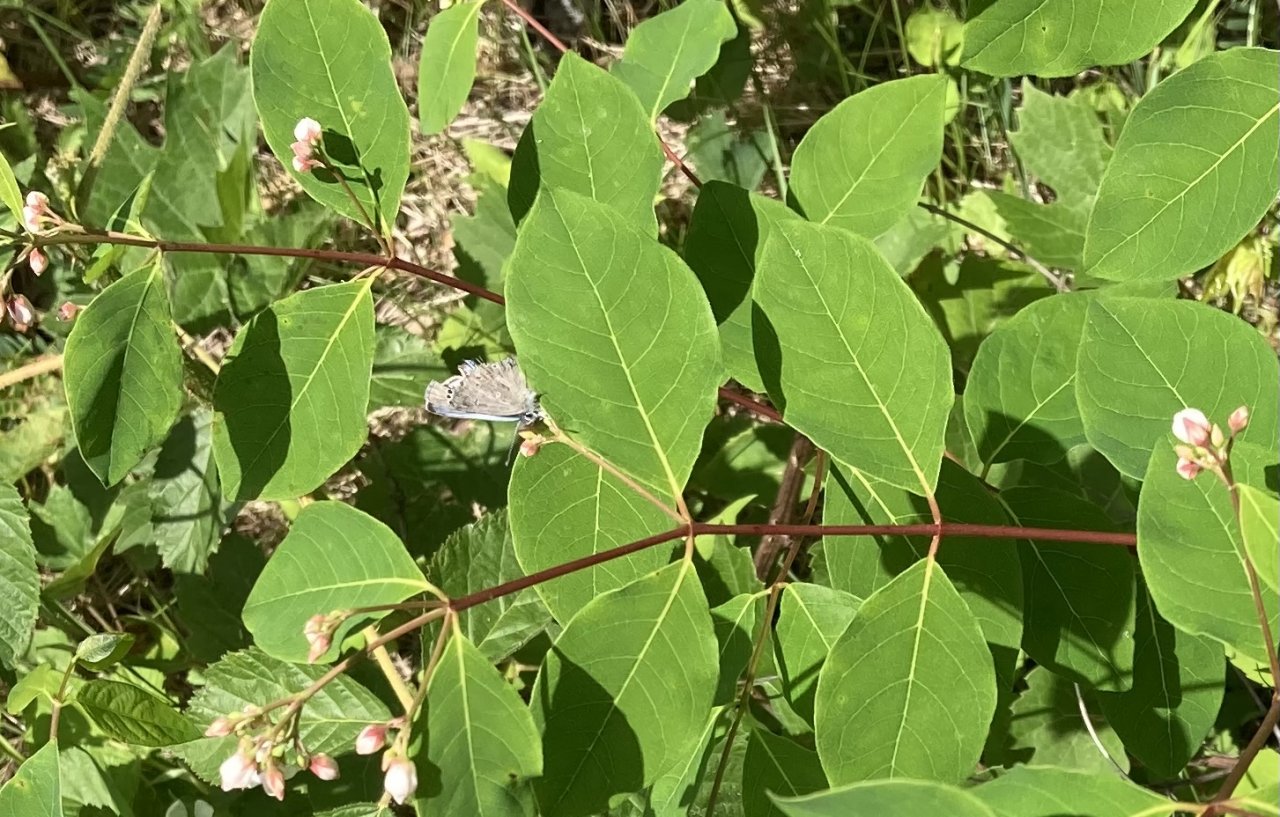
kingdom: Animalia
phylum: Arthropoda
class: Insecta
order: Lepidoptera
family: Lycaenidae
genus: Glaucopsyche
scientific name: Glaucopsyche lygdamus
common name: Silvery Blue
